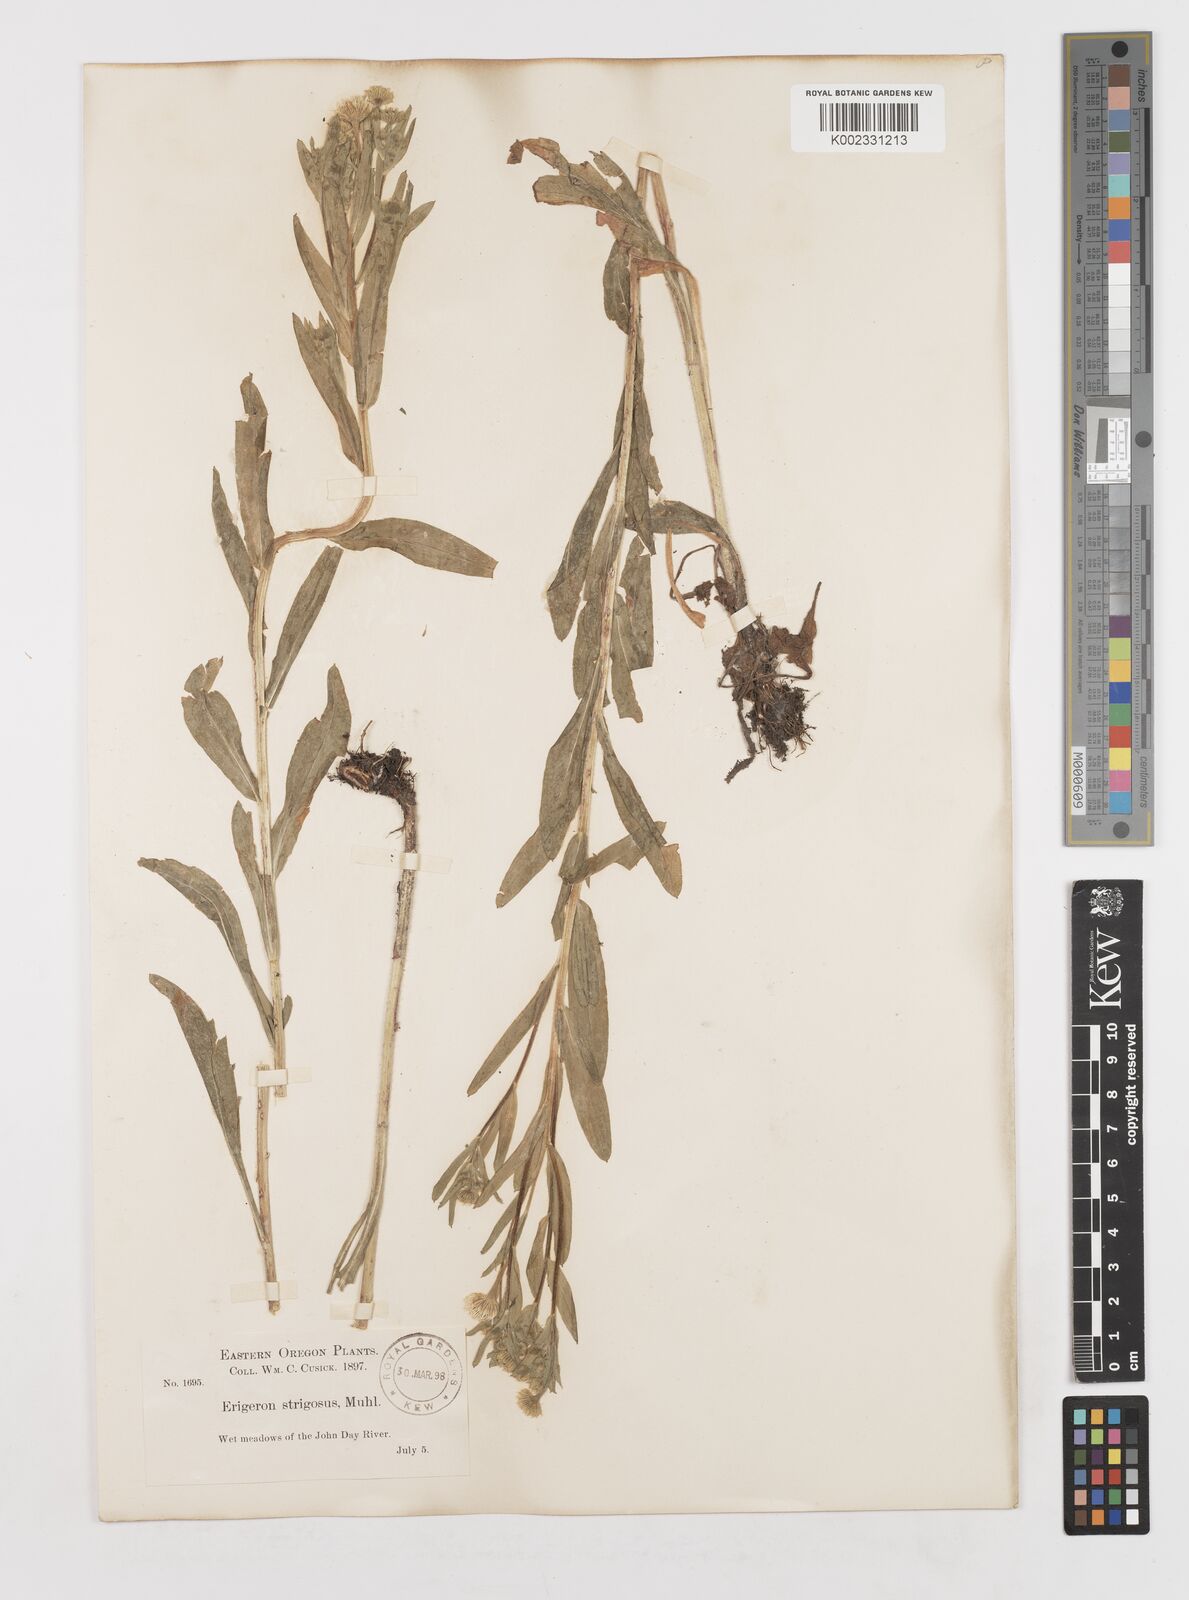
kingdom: Plantae
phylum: Tracheophyta
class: Magnoliopsida
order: Asterales
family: Asteraceae
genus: Erigeron
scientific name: Erigeron annuus
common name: Tall fleabane
